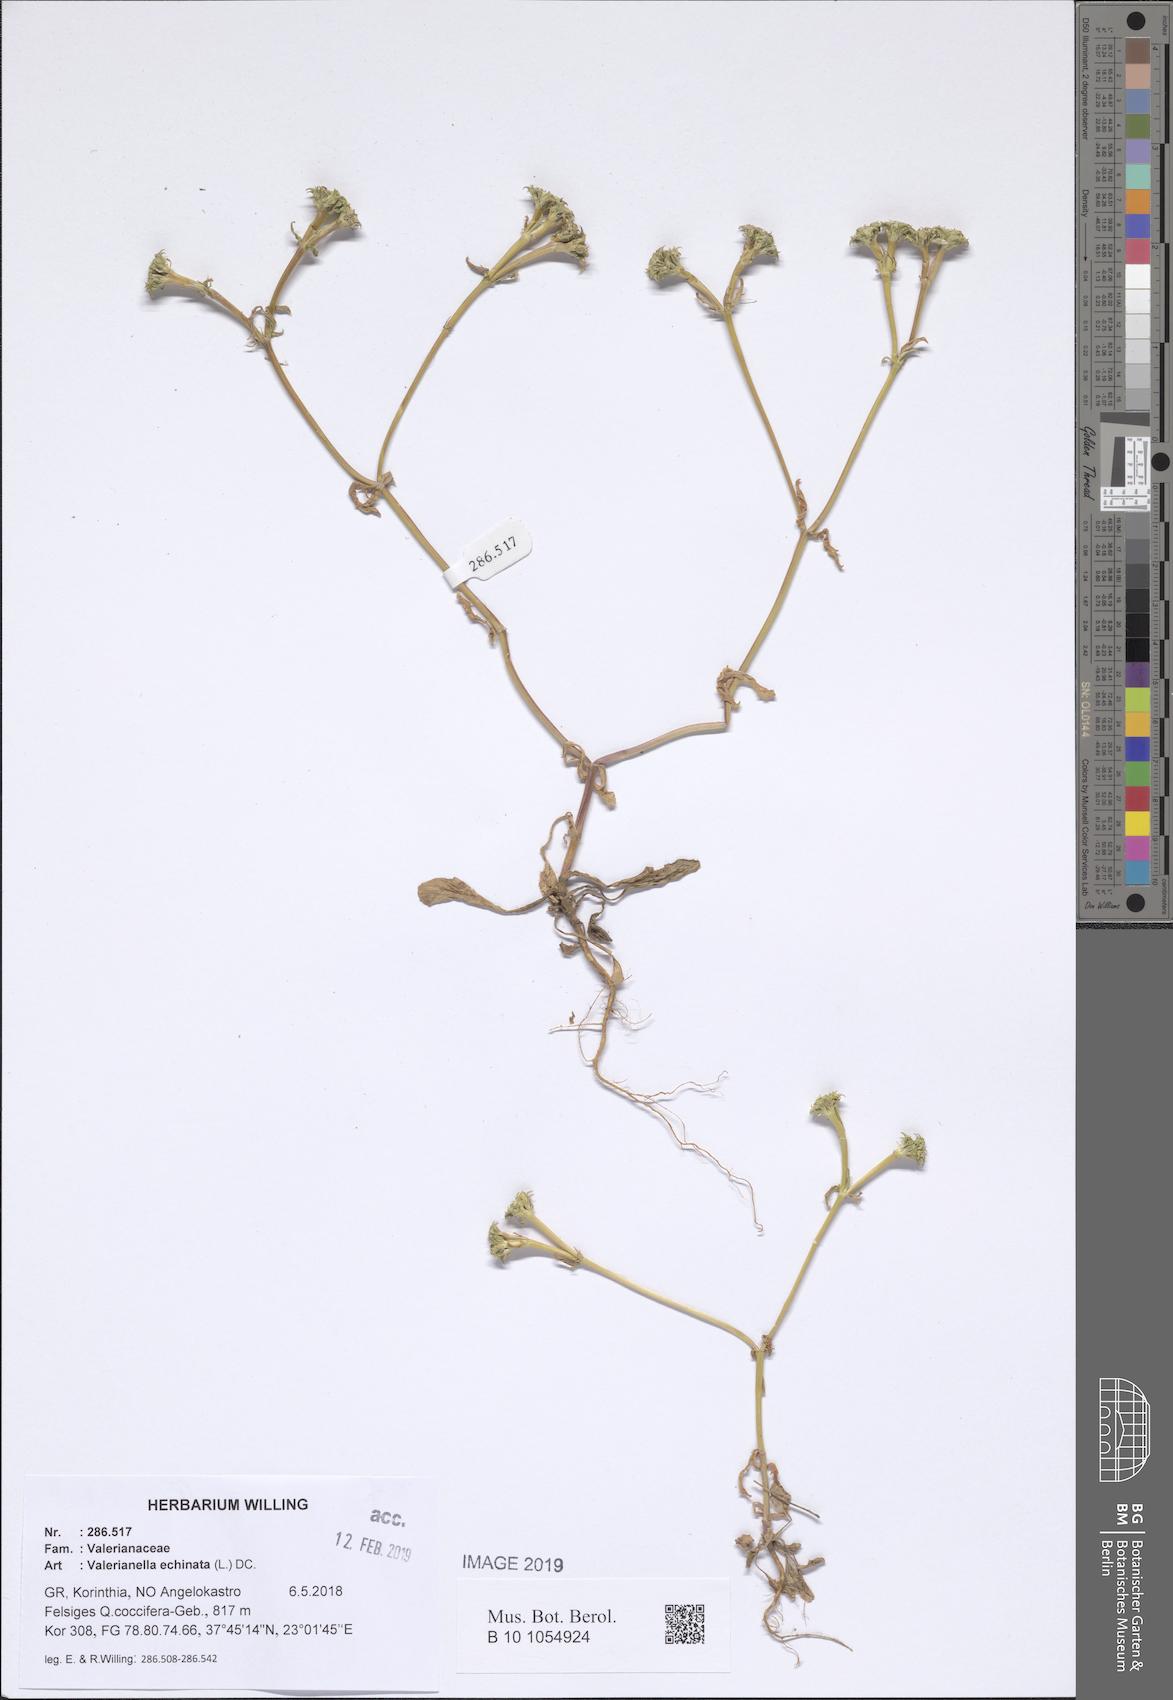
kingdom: Plantae
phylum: Tracheophyta
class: Magnoliopsida
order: Dipsacales
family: Caprifoliaceae
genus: Valerianella
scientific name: Valerianella echinata
